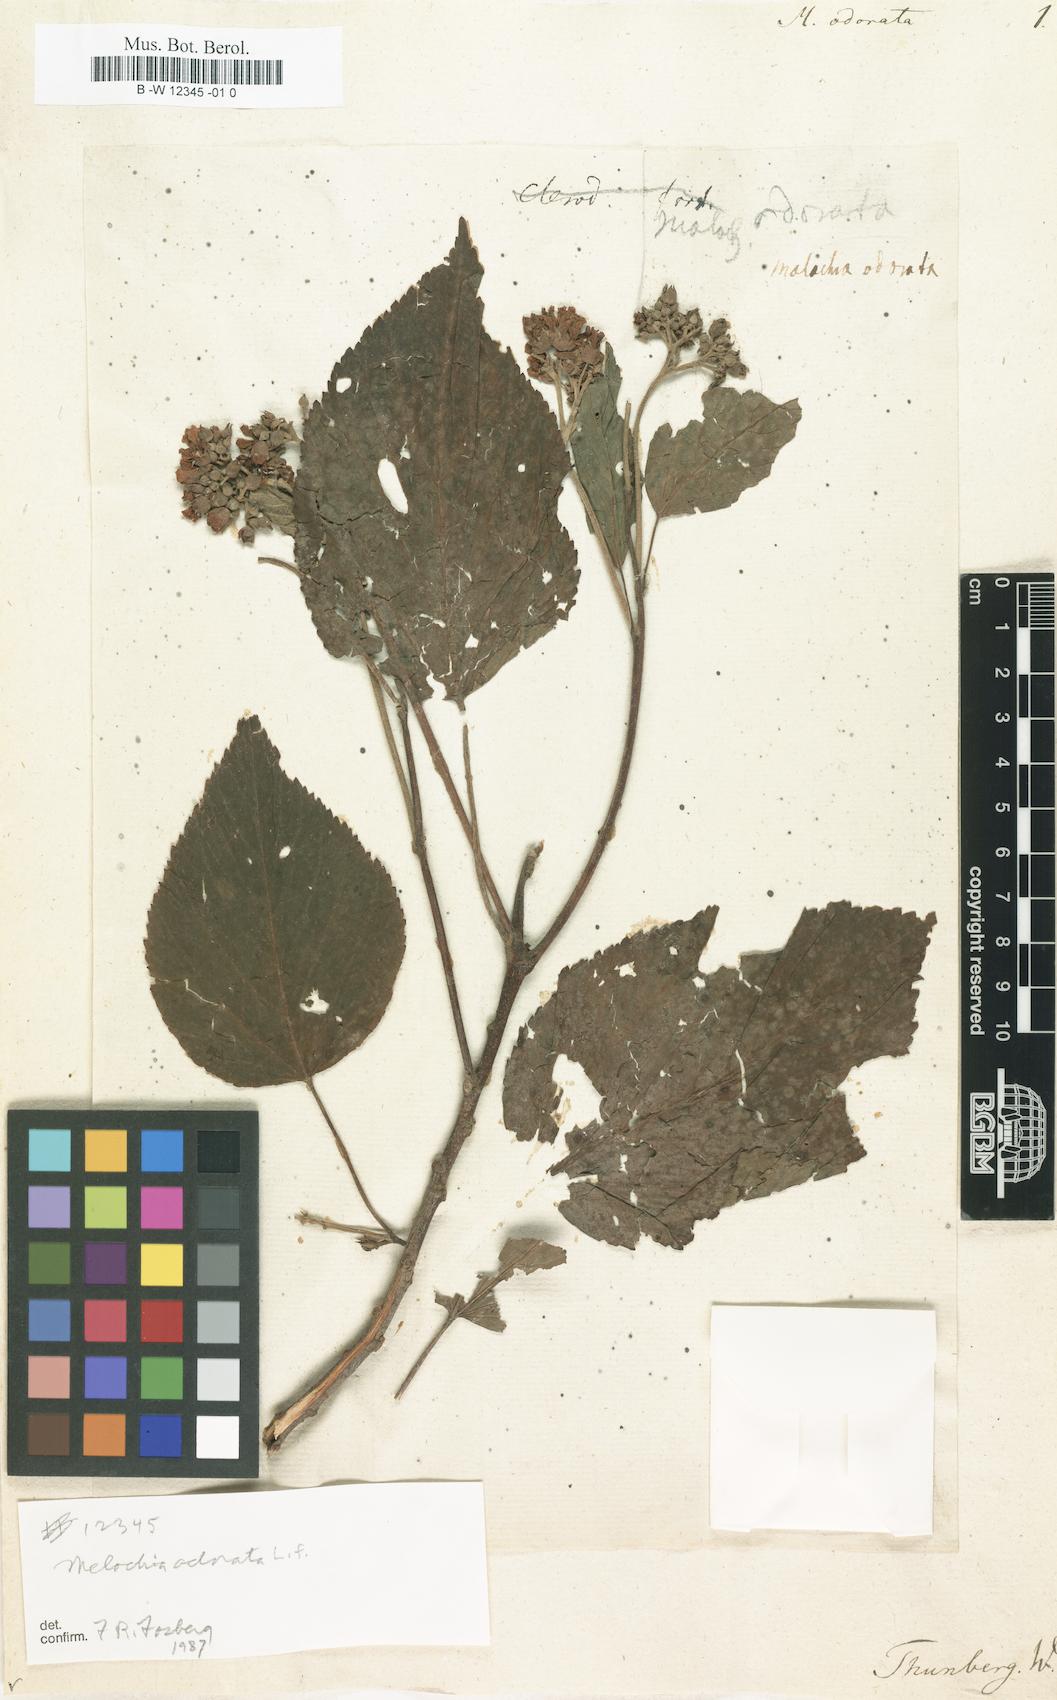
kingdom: Plantae
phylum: Tracheophyta
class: Magnoliopsida
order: Malvales
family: Malvaceae
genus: Melochia
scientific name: Melochia odorata
